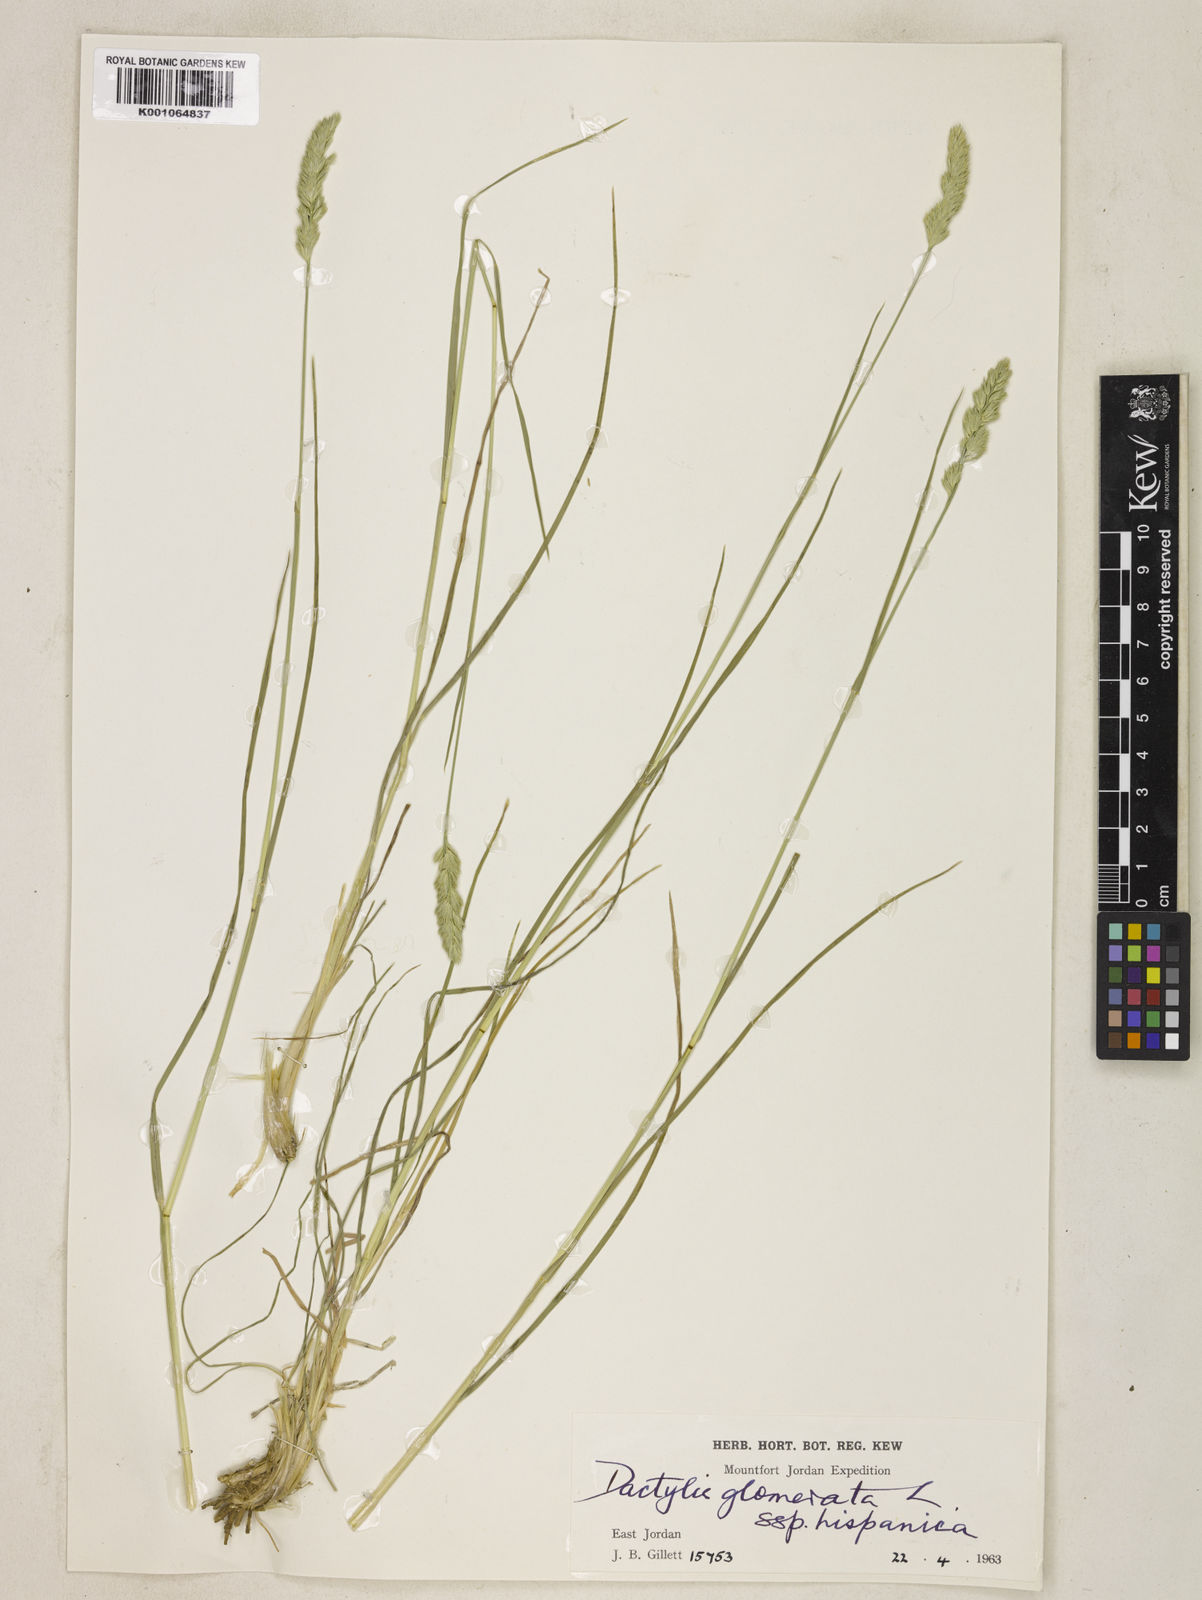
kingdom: Plantae
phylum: Tracheophyta
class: Liliopsida
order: Poales
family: Poaceae
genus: Dactylis
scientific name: Dactylis glomerata
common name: Orchardgrass
